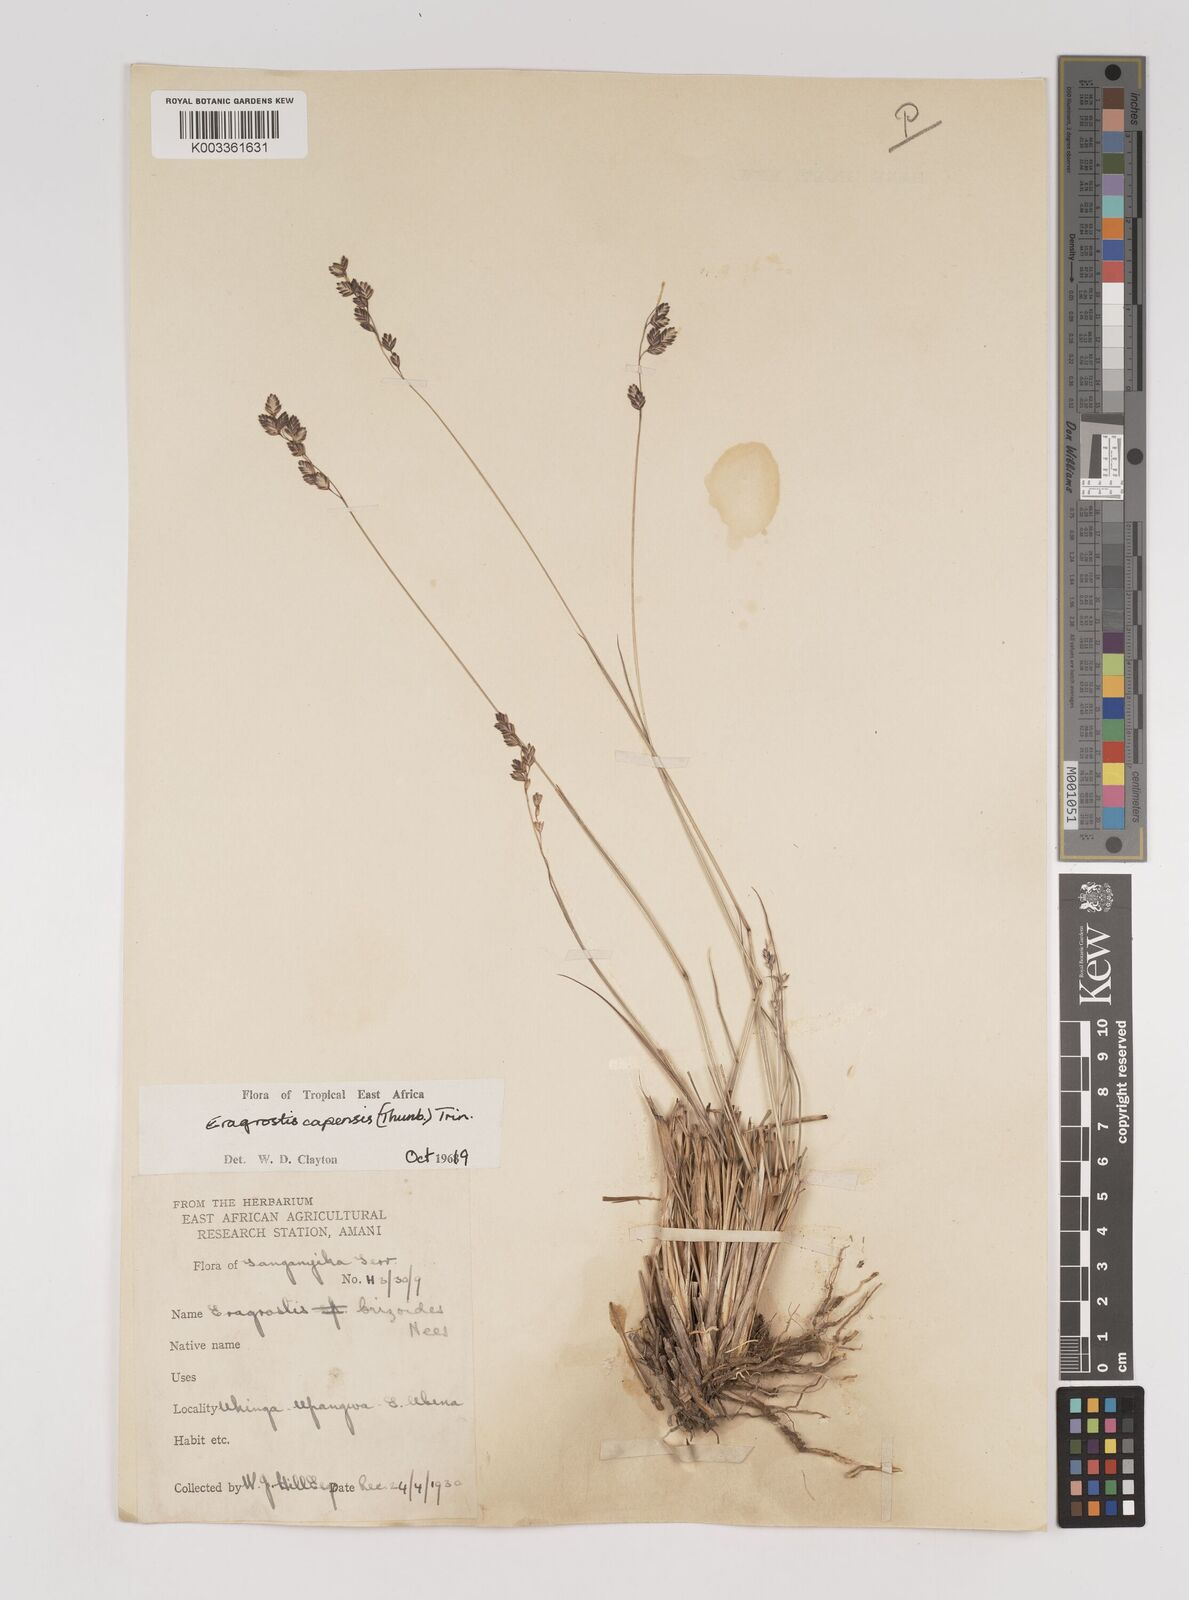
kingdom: Plantae
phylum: Tracheophyta
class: Liliopsida
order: Poales
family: Poaceae
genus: Eragrostis
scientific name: Eragrostis capensis
